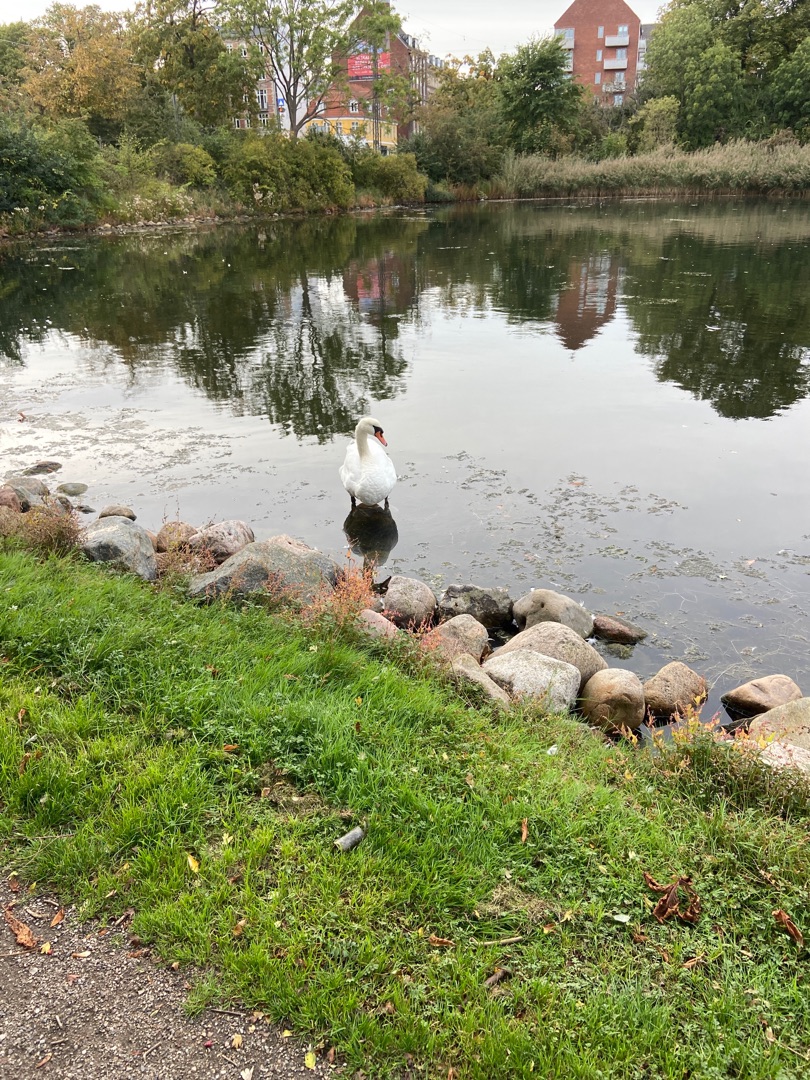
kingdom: Animalia
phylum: Chordata
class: Aves
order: Anseriformes
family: Anatidae
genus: Cygnus
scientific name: Cygnus olor
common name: Knopsvane
